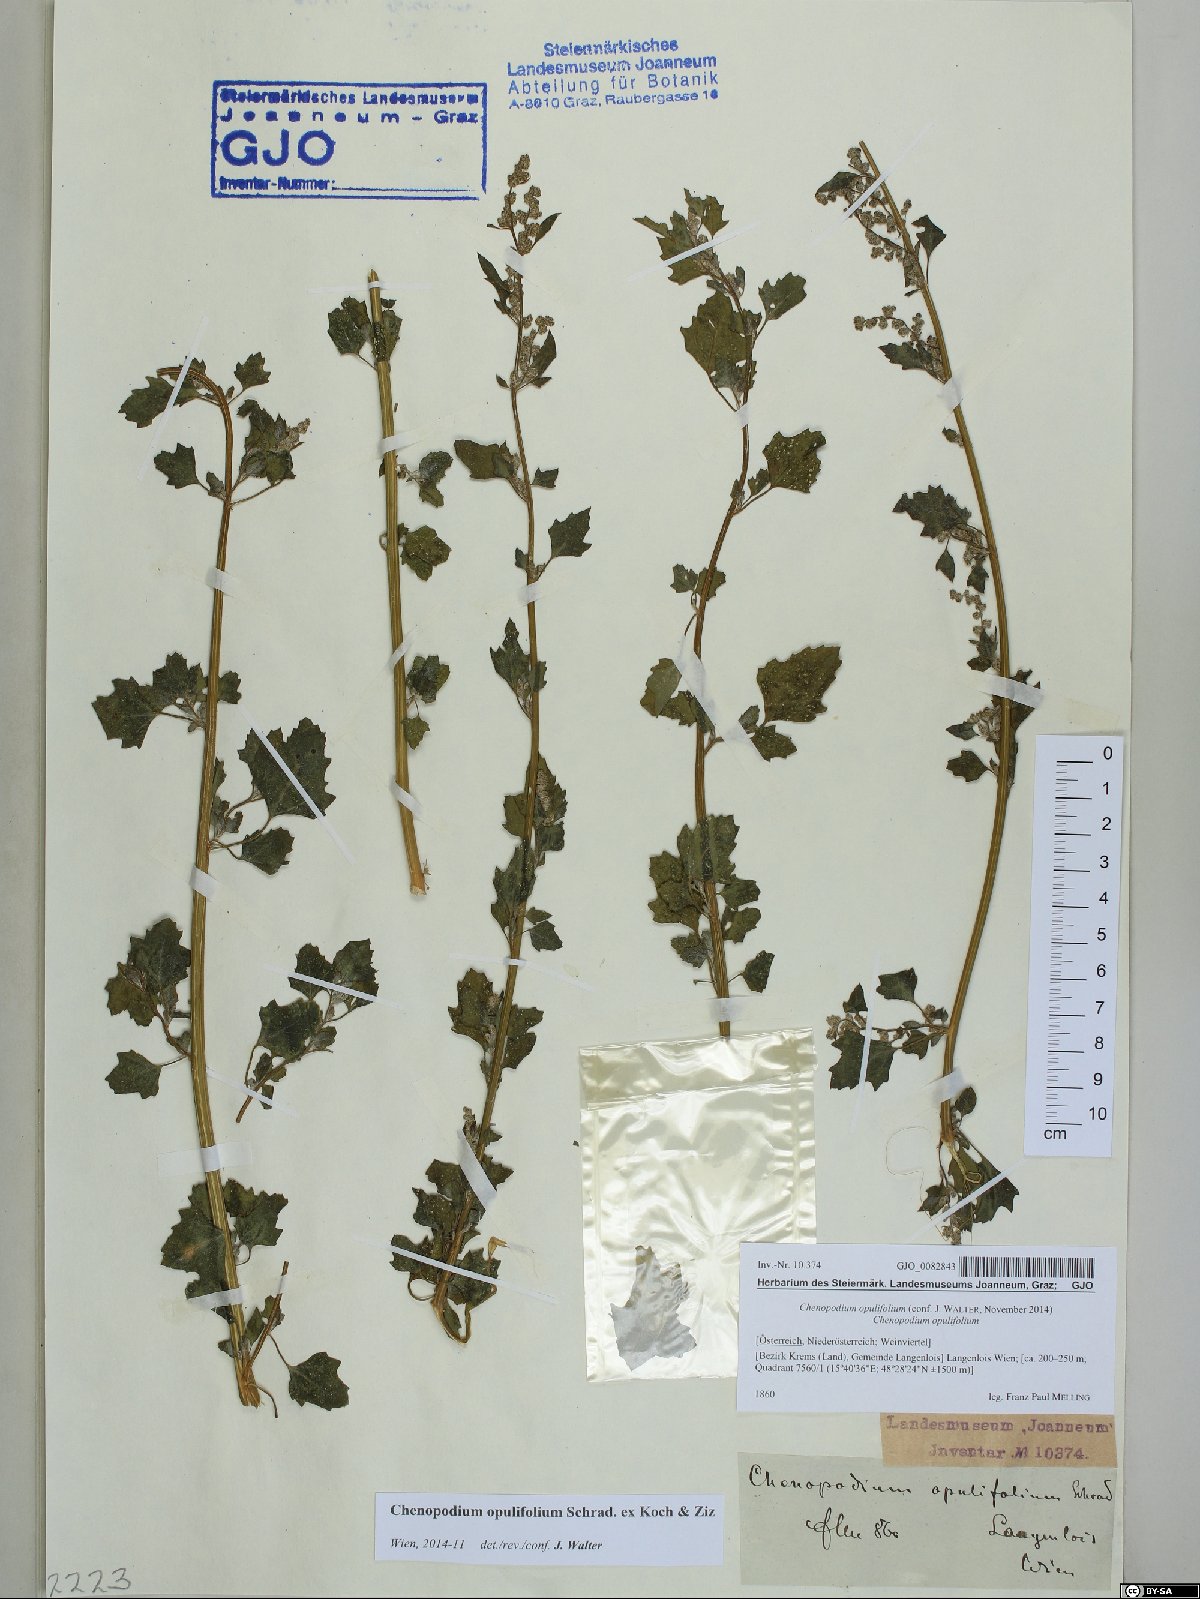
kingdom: Plantae
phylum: Tracheophyta
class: Magnoliopsida
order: Caryophyllales
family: Amaranthaceae
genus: Chenopodium
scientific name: Chenopodium opulifolium
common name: Grey goosefoot
